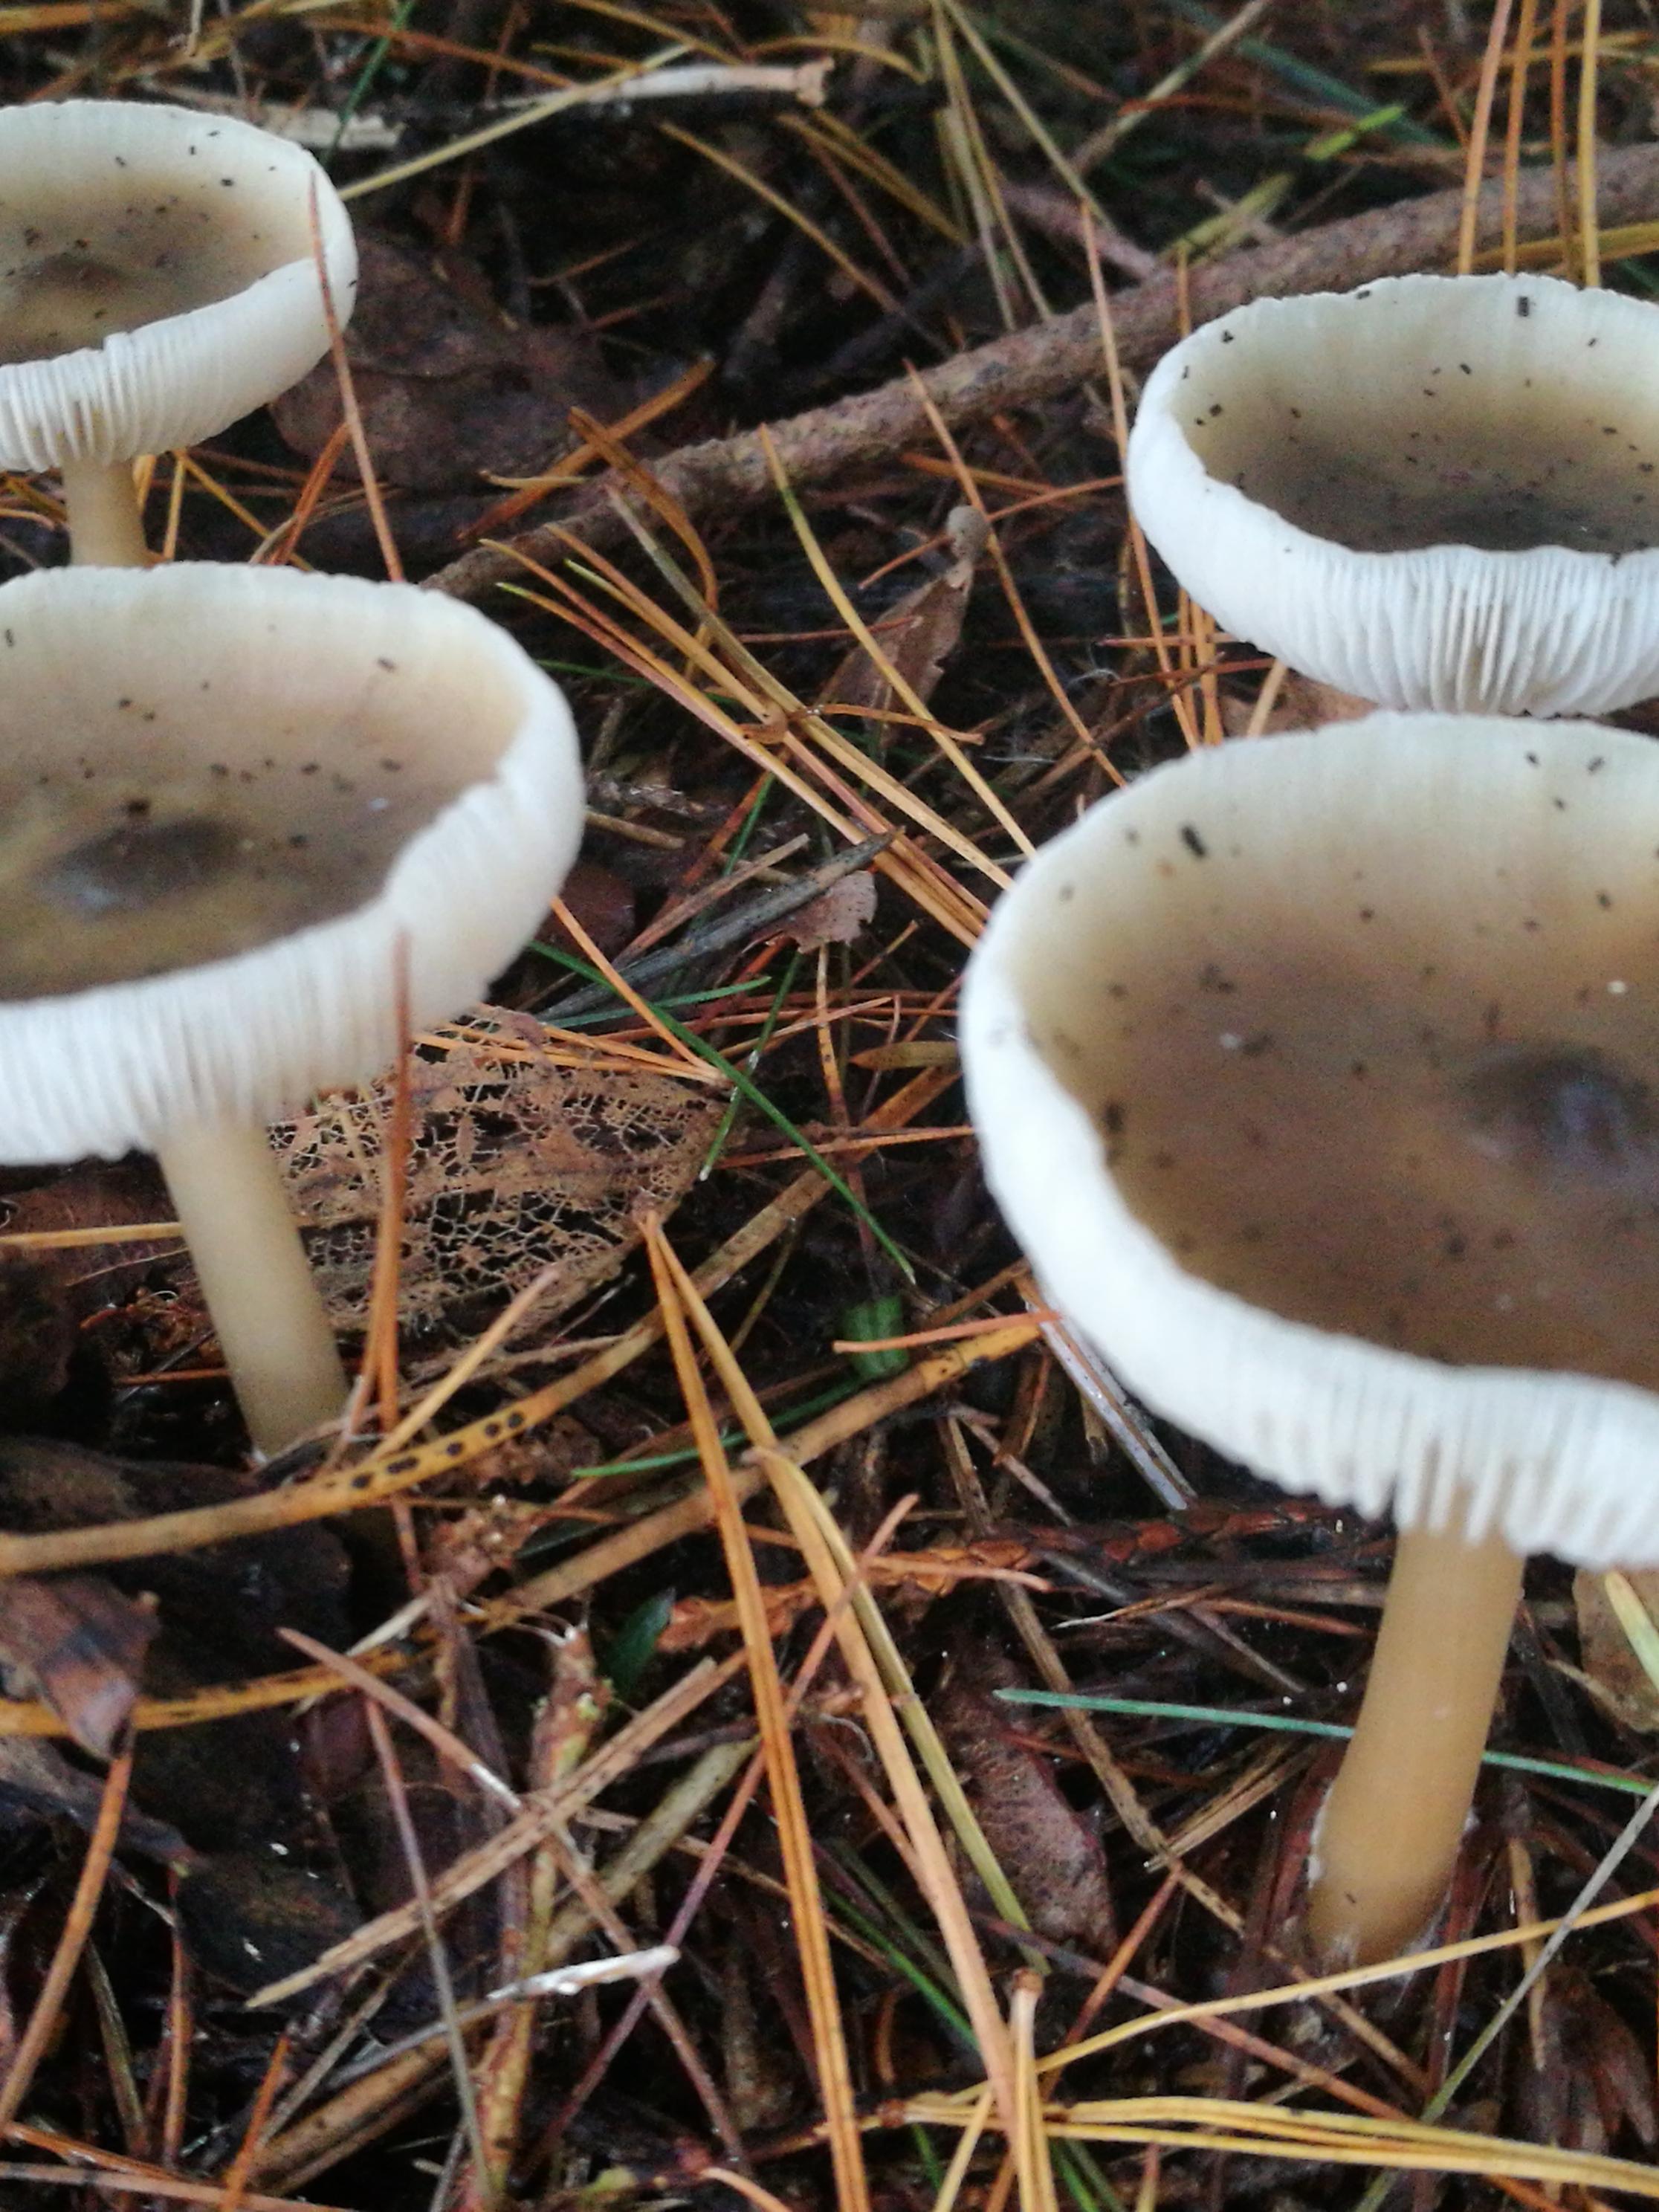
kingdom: Fungi
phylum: Basidiomycota
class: Agaricomycetes
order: Agaricales
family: Omphalotaceae
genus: Rhodocollybia
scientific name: Rhodocollybia asema
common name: horngrå fladhat
